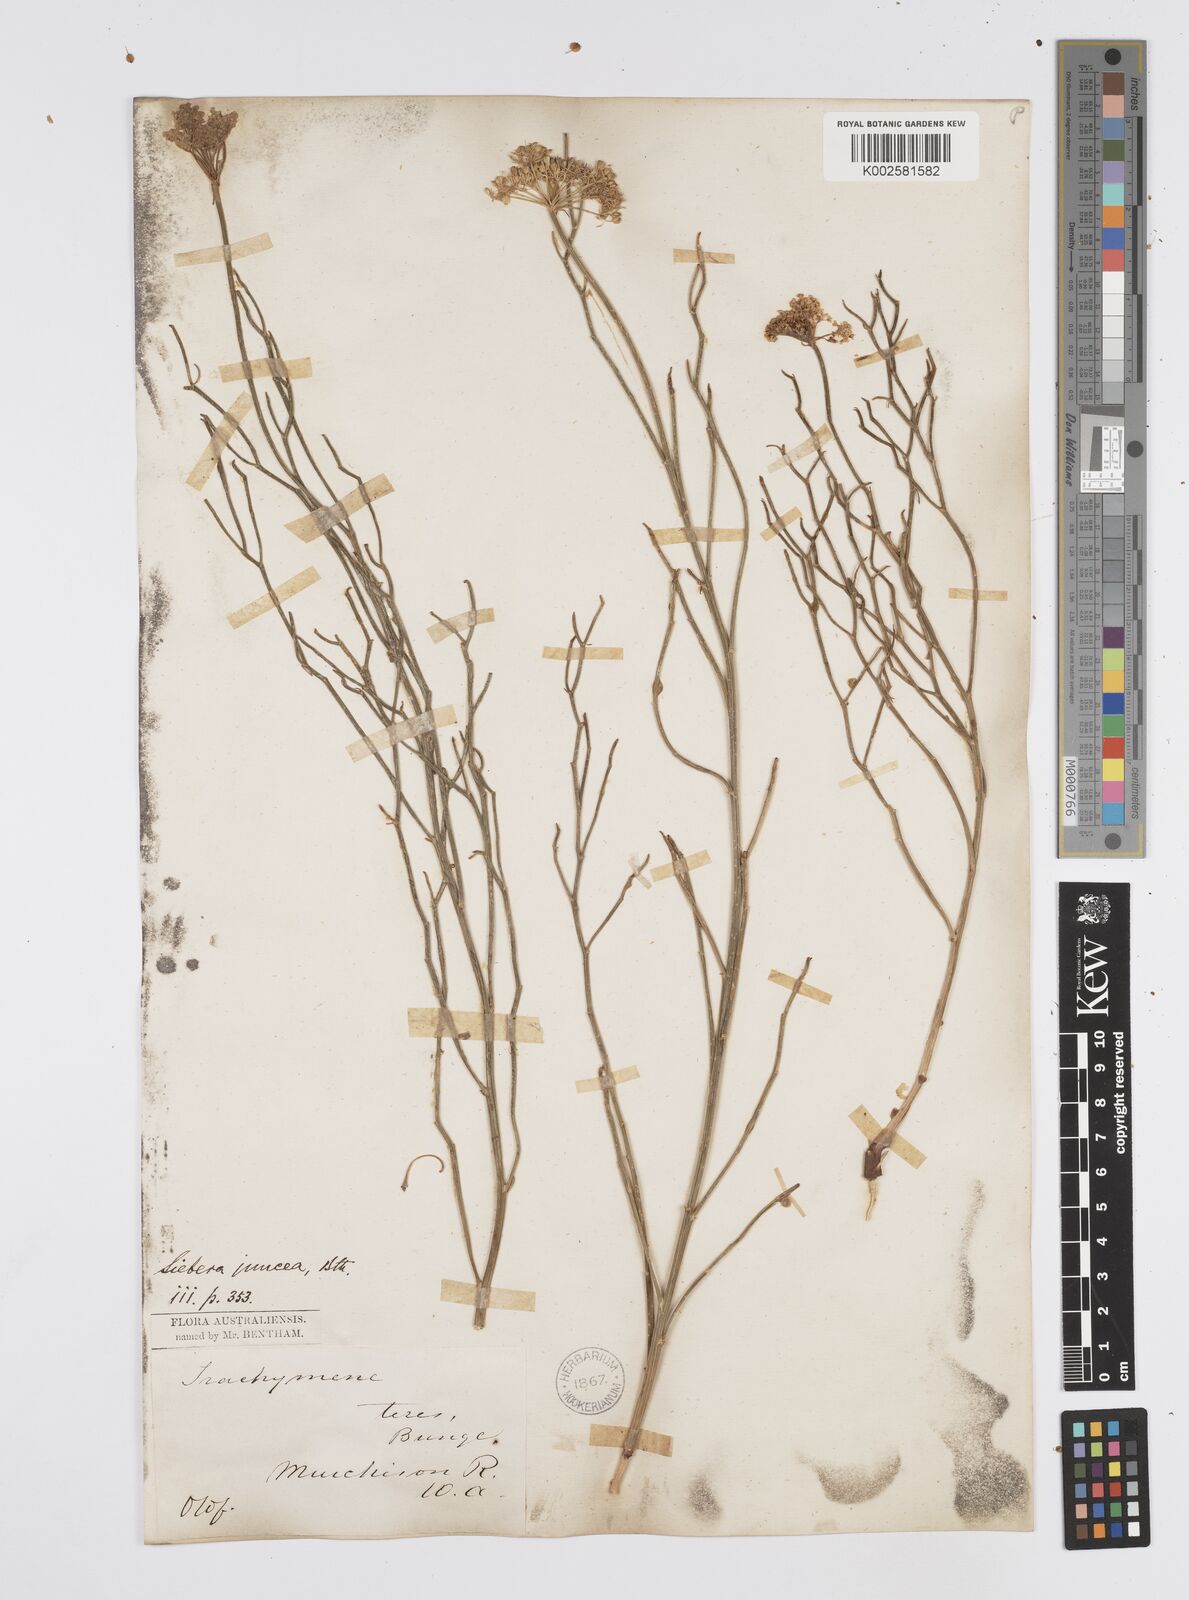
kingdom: Plantae
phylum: Tracheophyta
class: Magnoliopsida
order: Apiales
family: Apiaceae
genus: Platysace
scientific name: Platysace ramosissima
